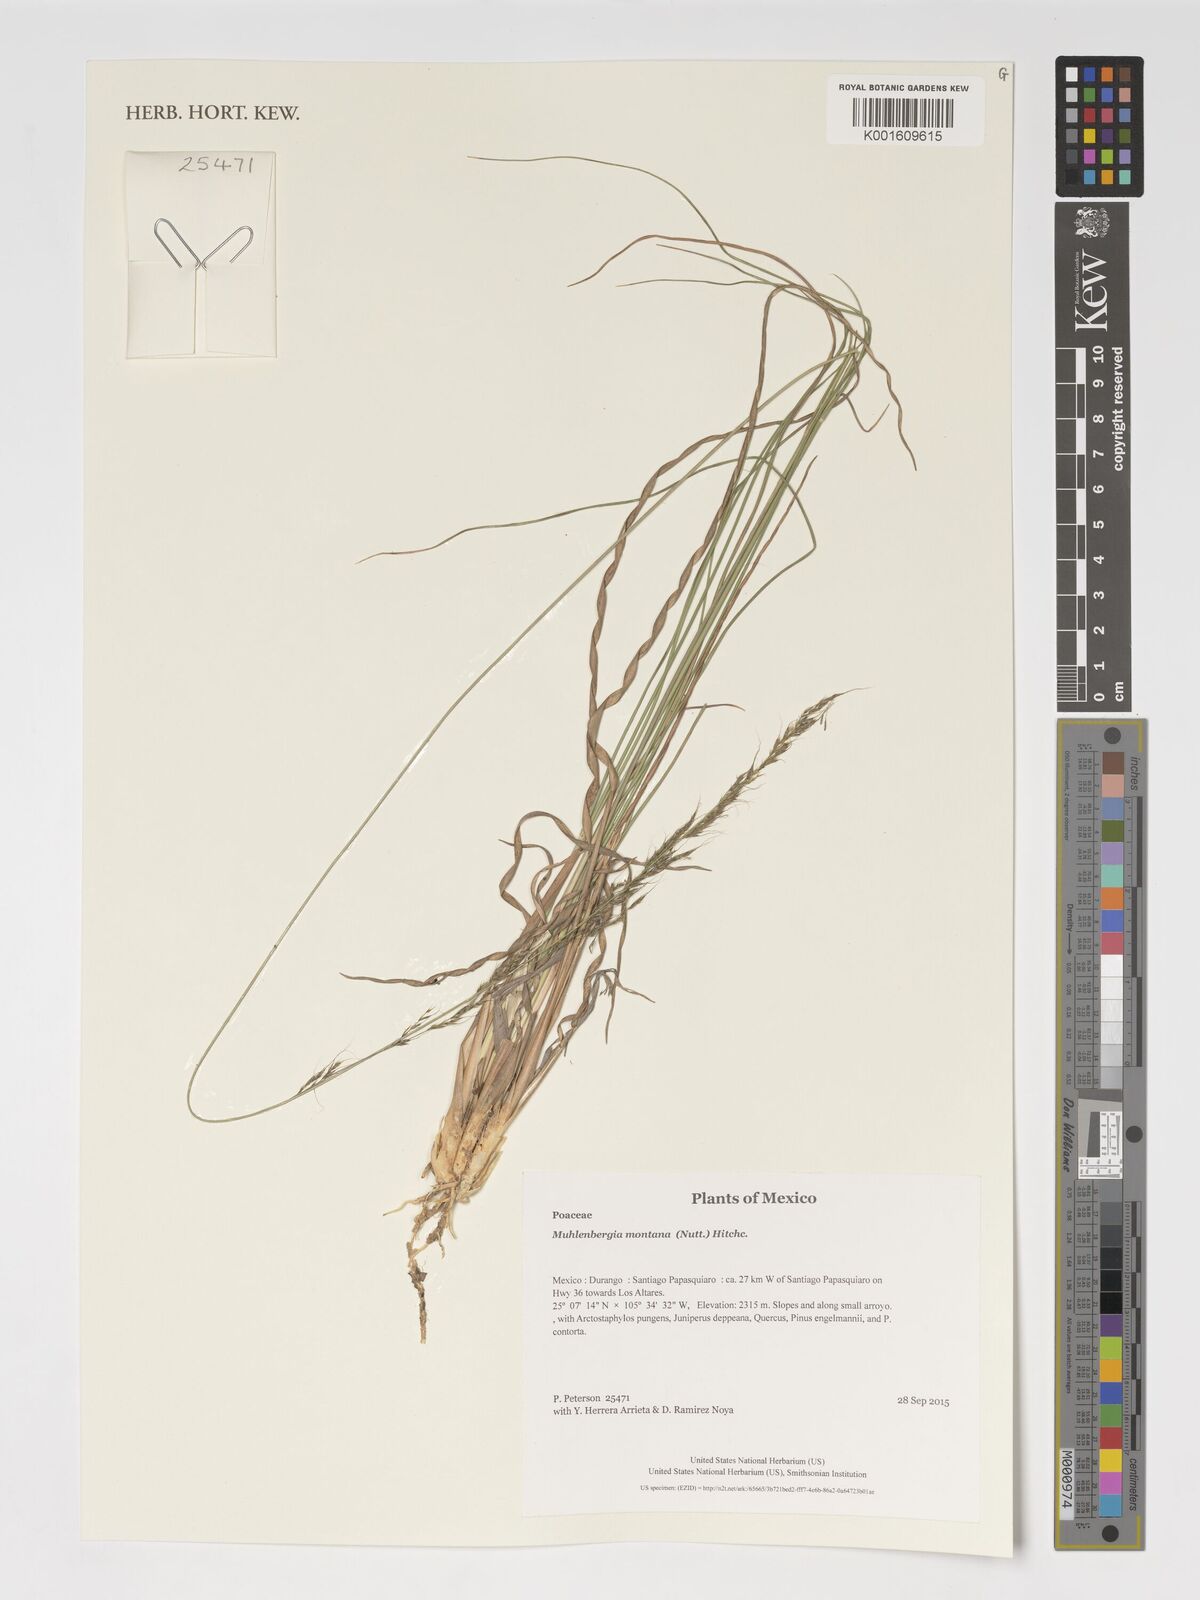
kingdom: Plantae
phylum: Tracheophyta
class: Liliopsida
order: Poales
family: Poaceae
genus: Muhlenbergia
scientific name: Muhlenbergia montana
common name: Mountain muhly
